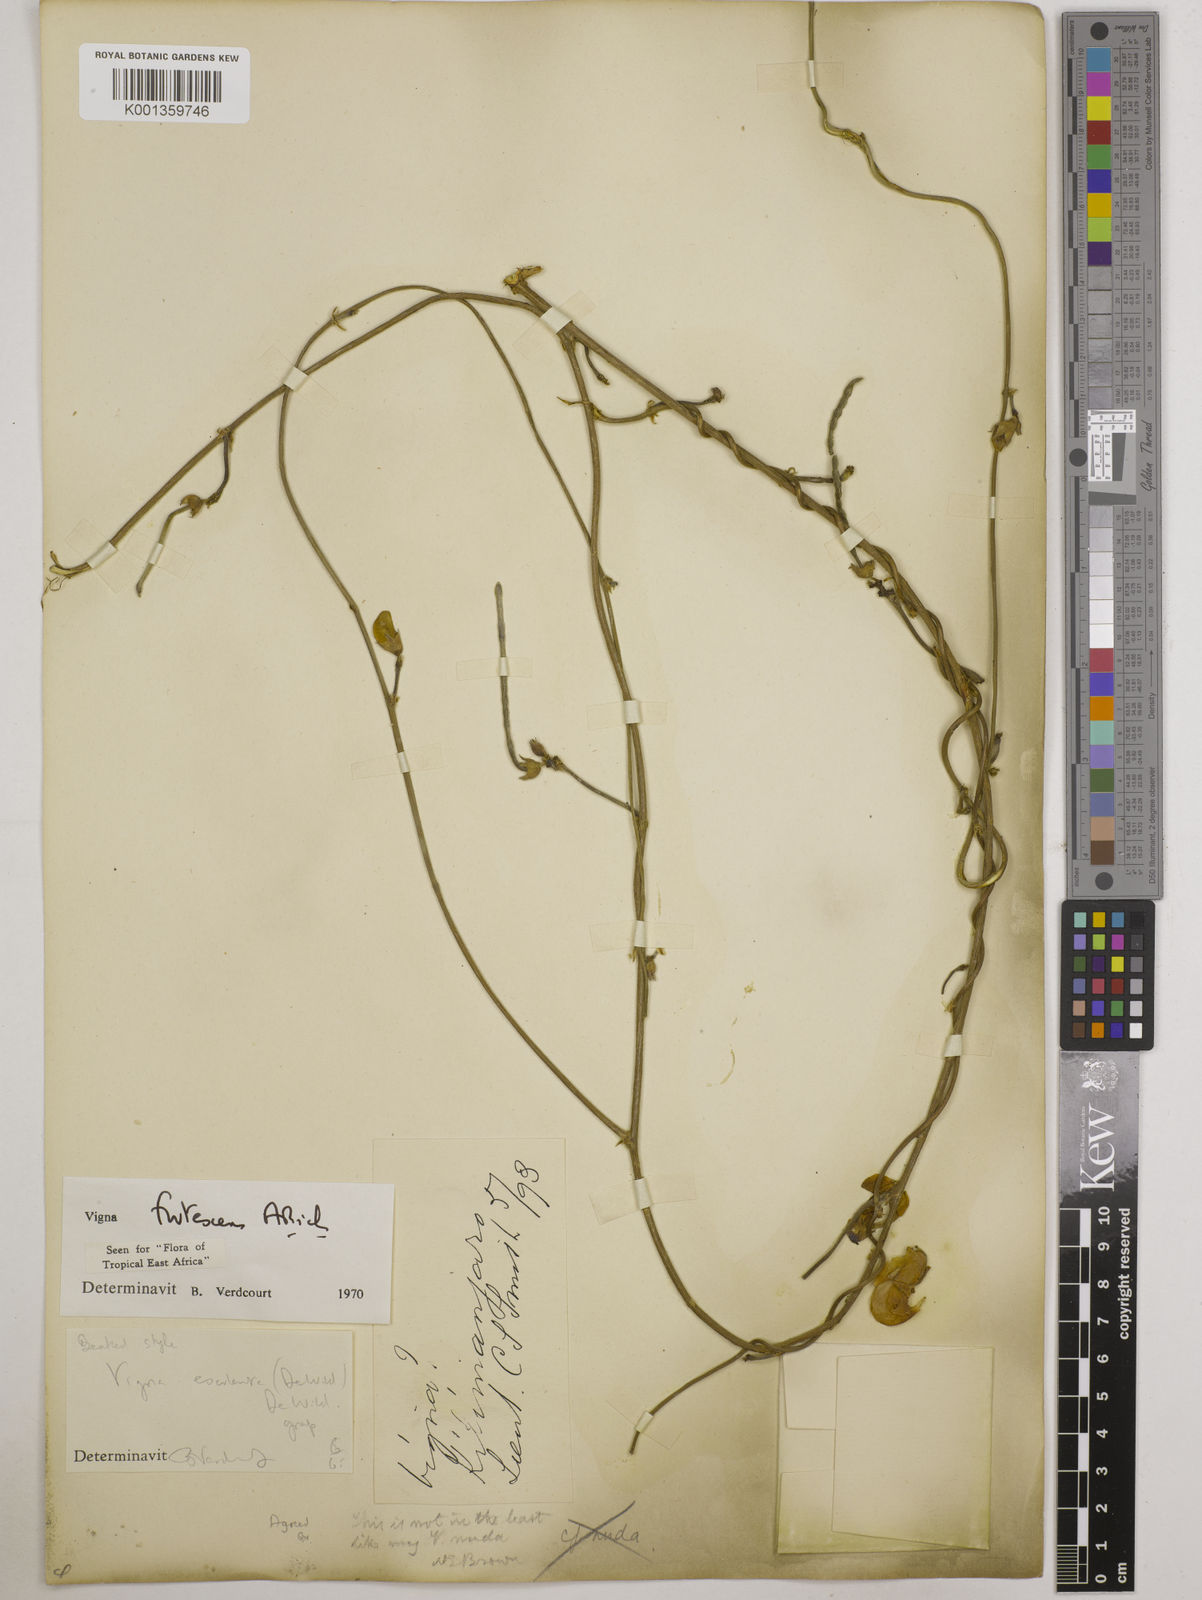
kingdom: Plantae
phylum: Tracheophyta
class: Magnoliopsida
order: Fabales
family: Fabaceae
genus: Vigna
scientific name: Vigna frutescens
